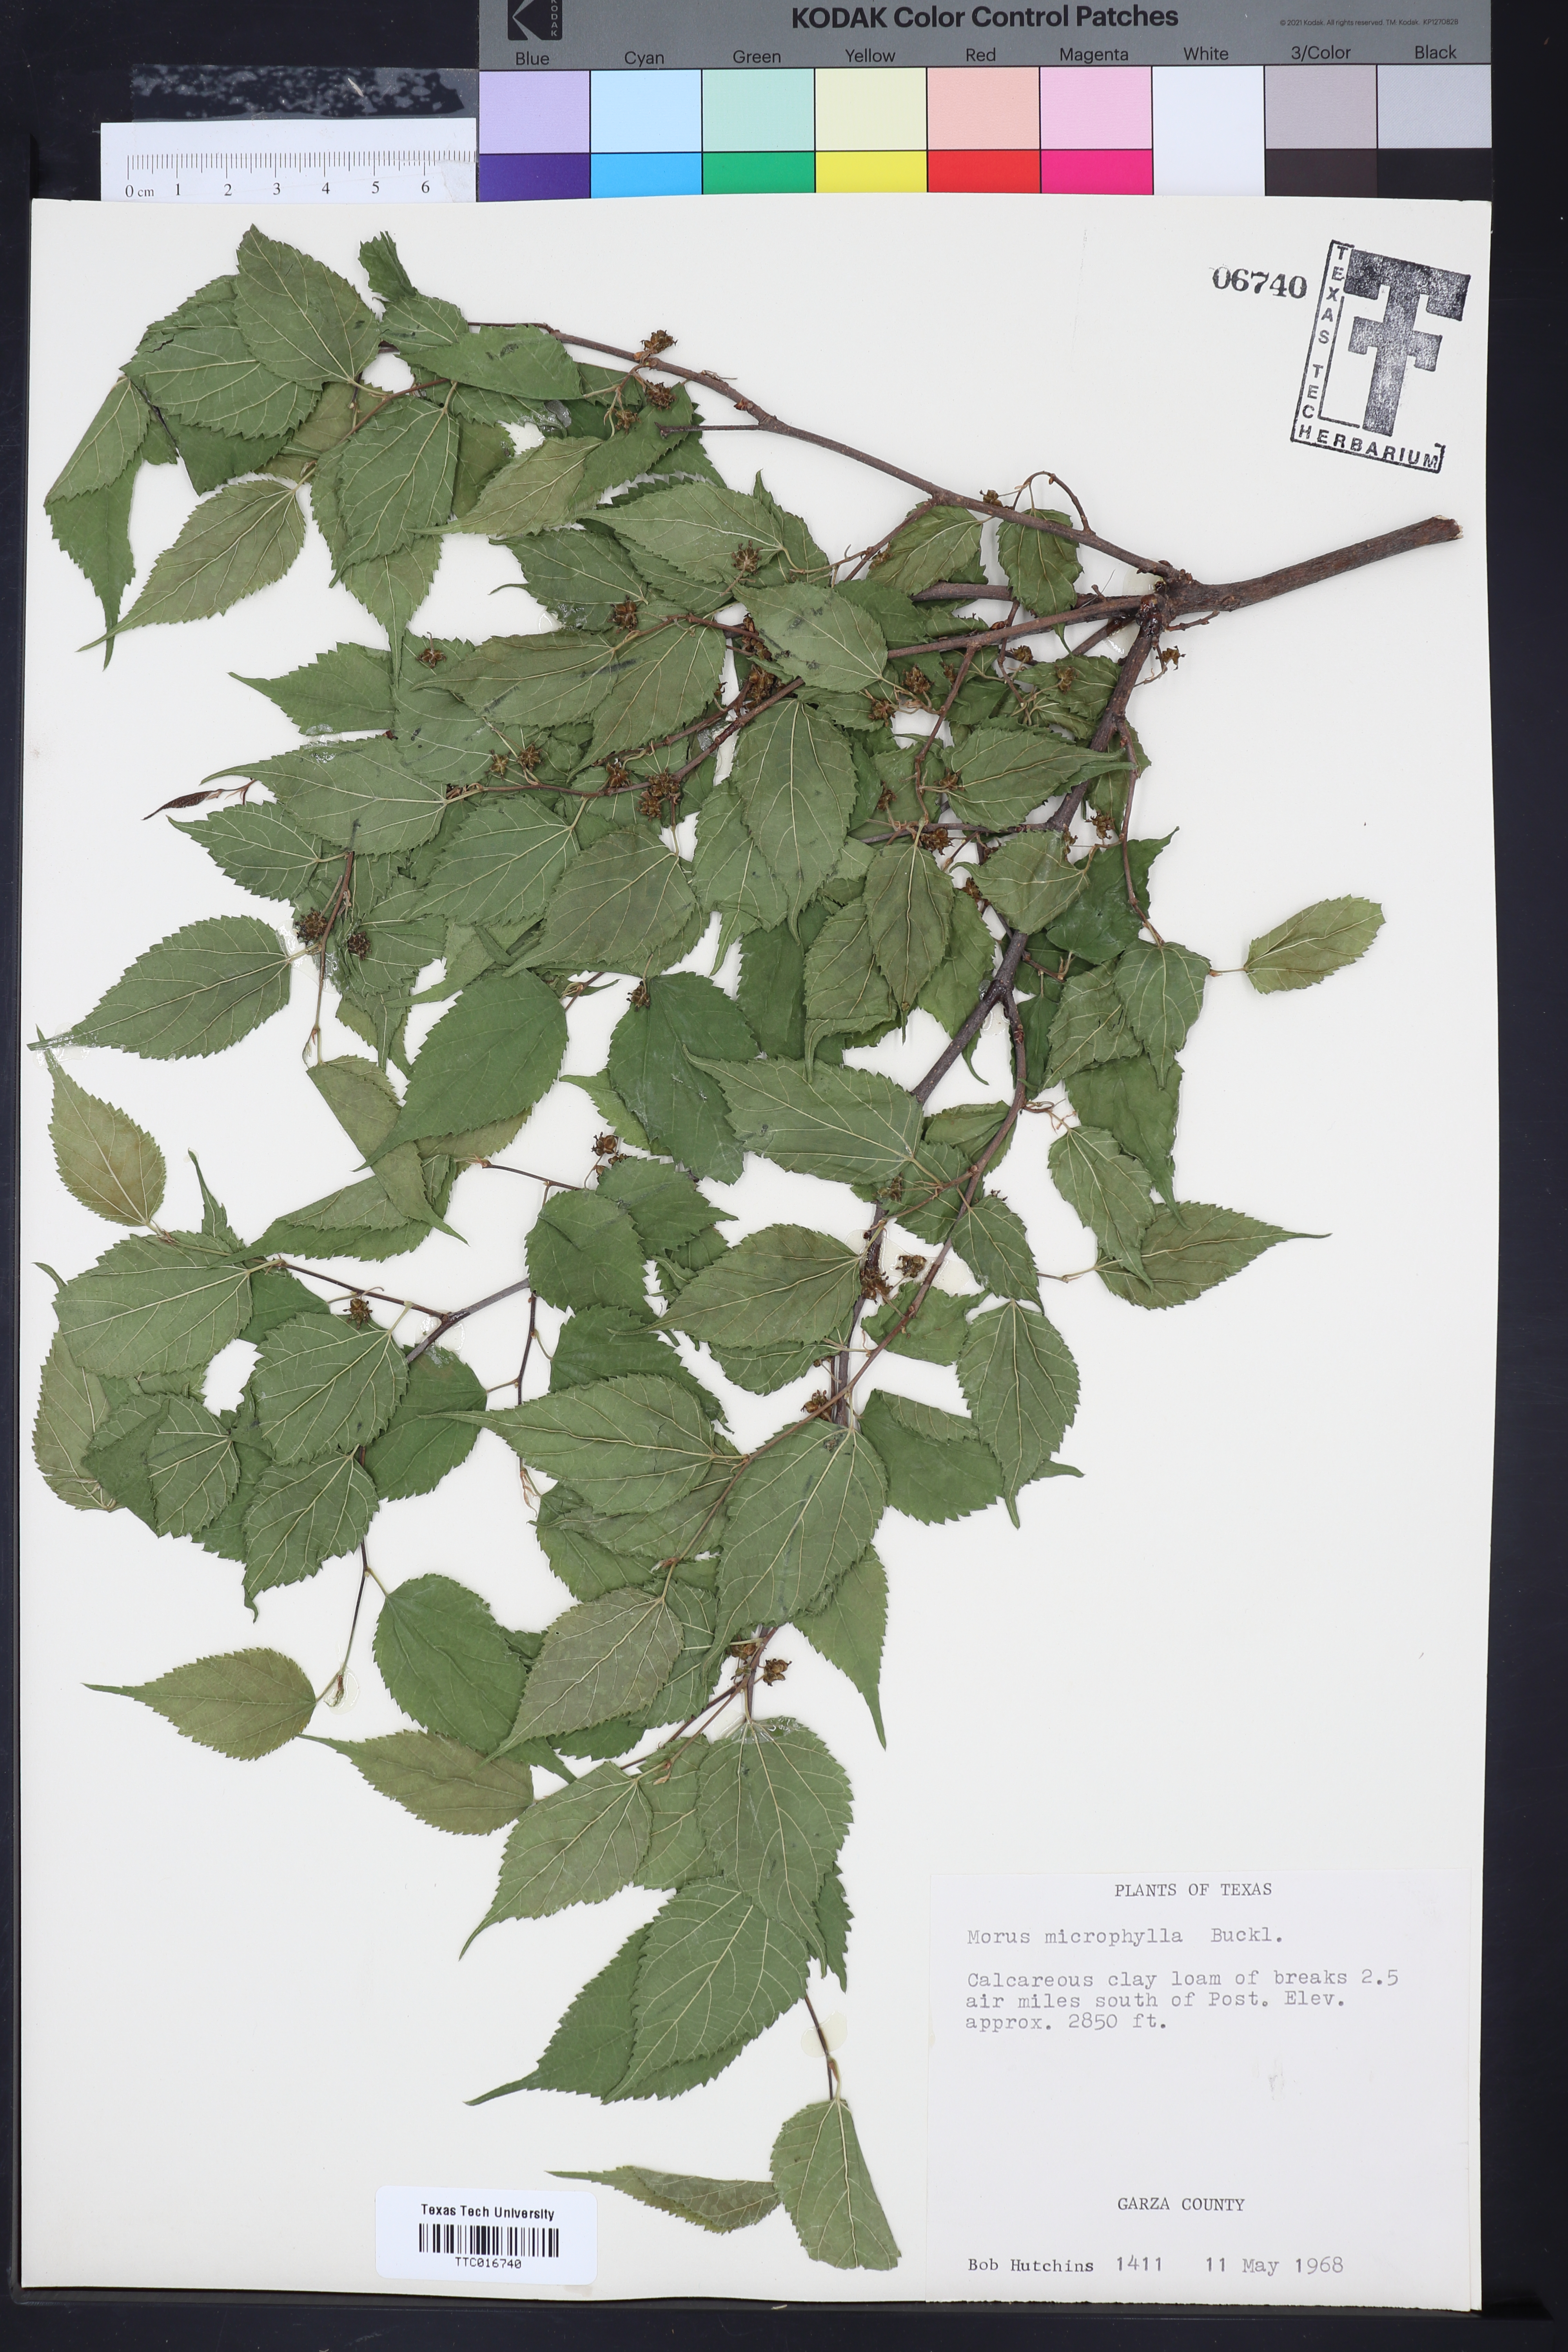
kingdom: Plantae
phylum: Tracheophyta
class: Magnoliopsida
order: Rosales
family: Moraceae
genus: Morus
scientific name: Morus microphylla
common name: Mexican mulberry
